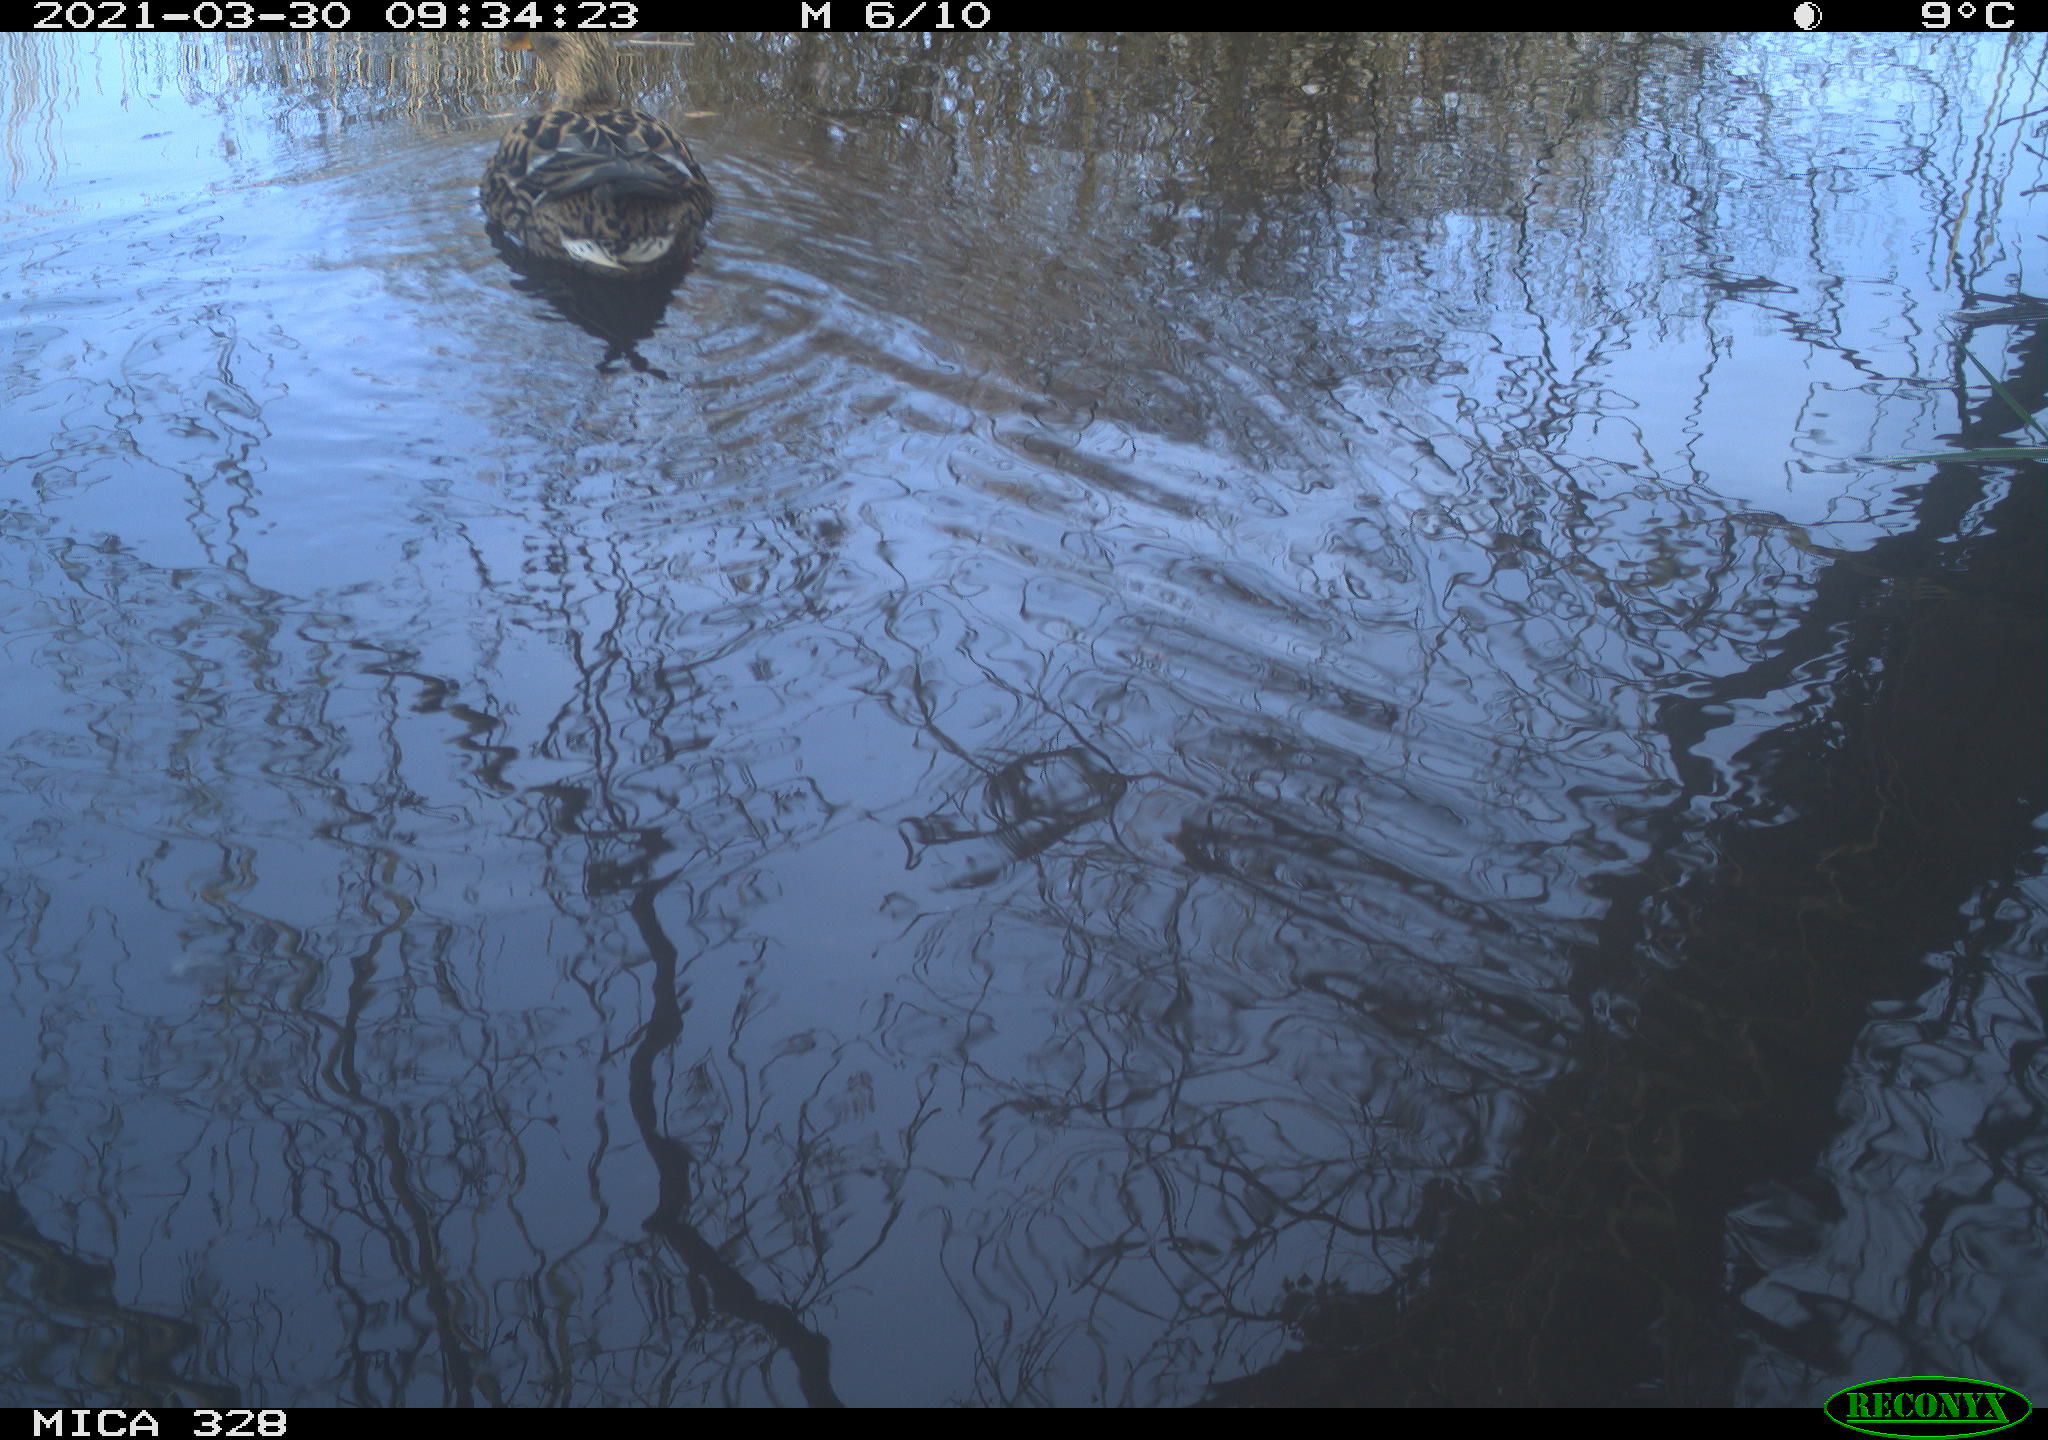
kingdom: Animalia
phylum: Chordata
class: Aves
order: Anseriformes
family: Anatidae
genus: Anas
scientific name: Anas platyrhynchos
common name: Mallard
